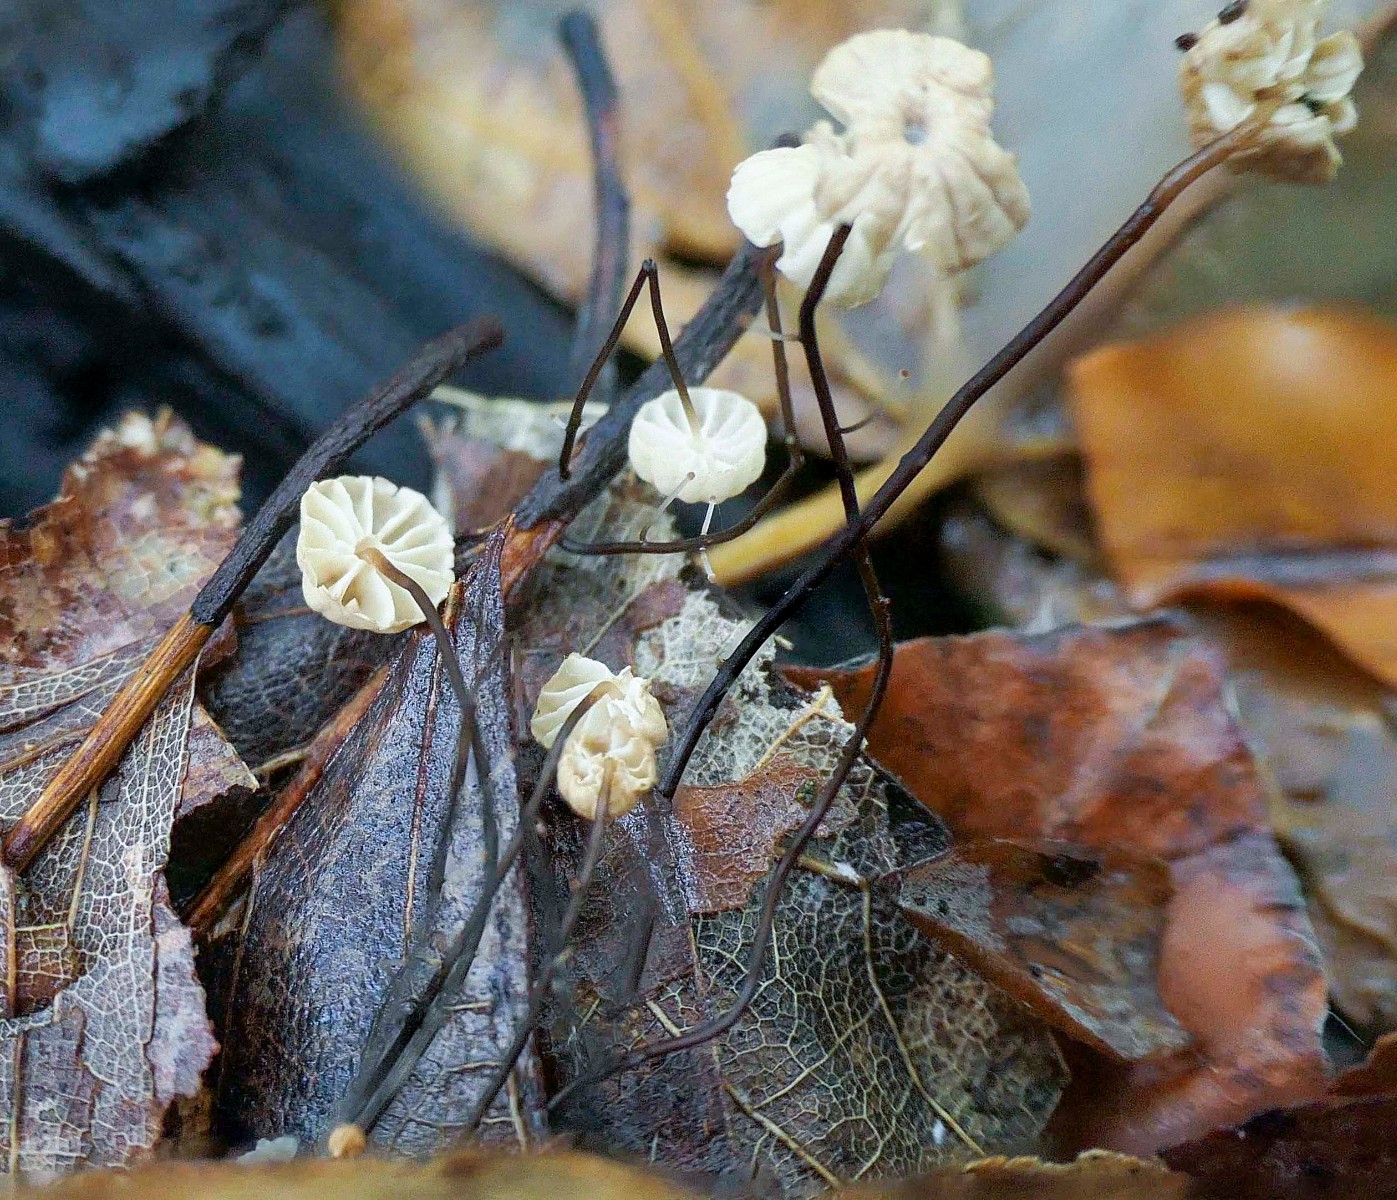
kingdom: Fungi
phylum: Basidiomycota
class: Agaricomycetes
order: Agaricales
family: Marasmiaceae
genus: Marasmius
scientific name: Marasmius bulliardii
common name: furet bruskhat
